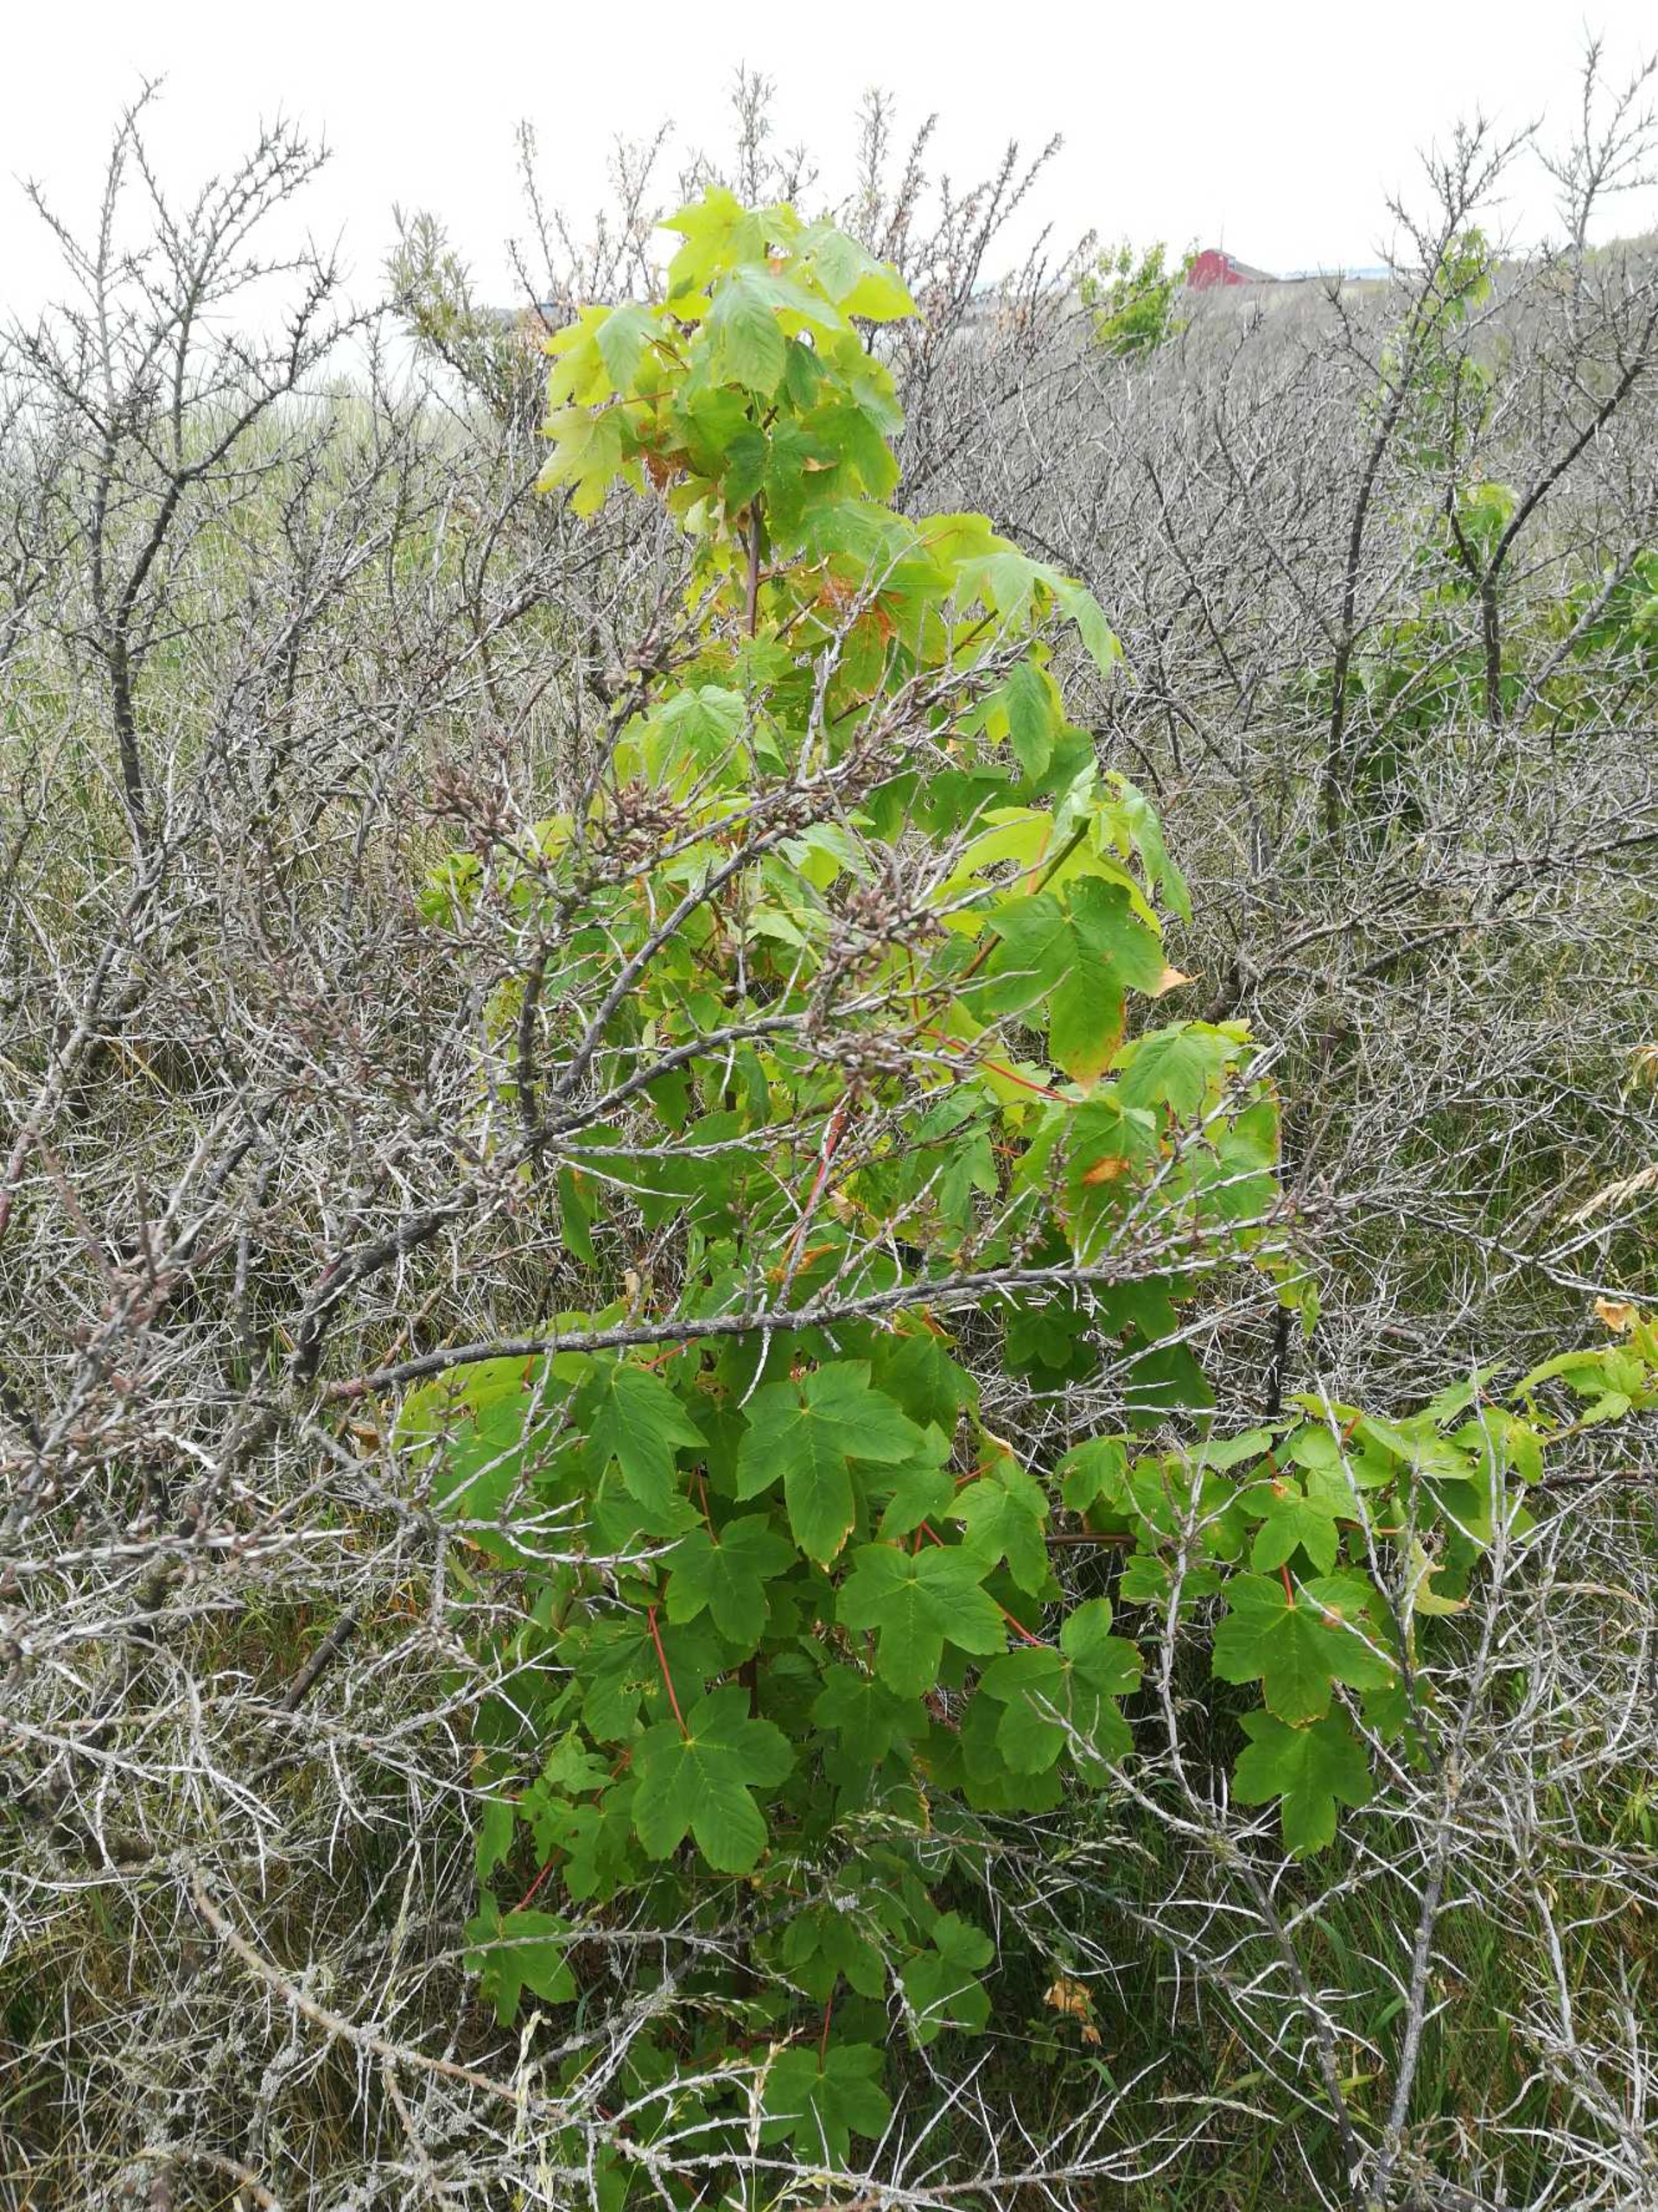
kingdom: Plantae
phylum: Tracheophyta
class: Magnoliopsida
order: Sapindales
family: Sapindaceae
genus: Acer
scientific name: Acer pseudoplatanus
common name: Ahorn
